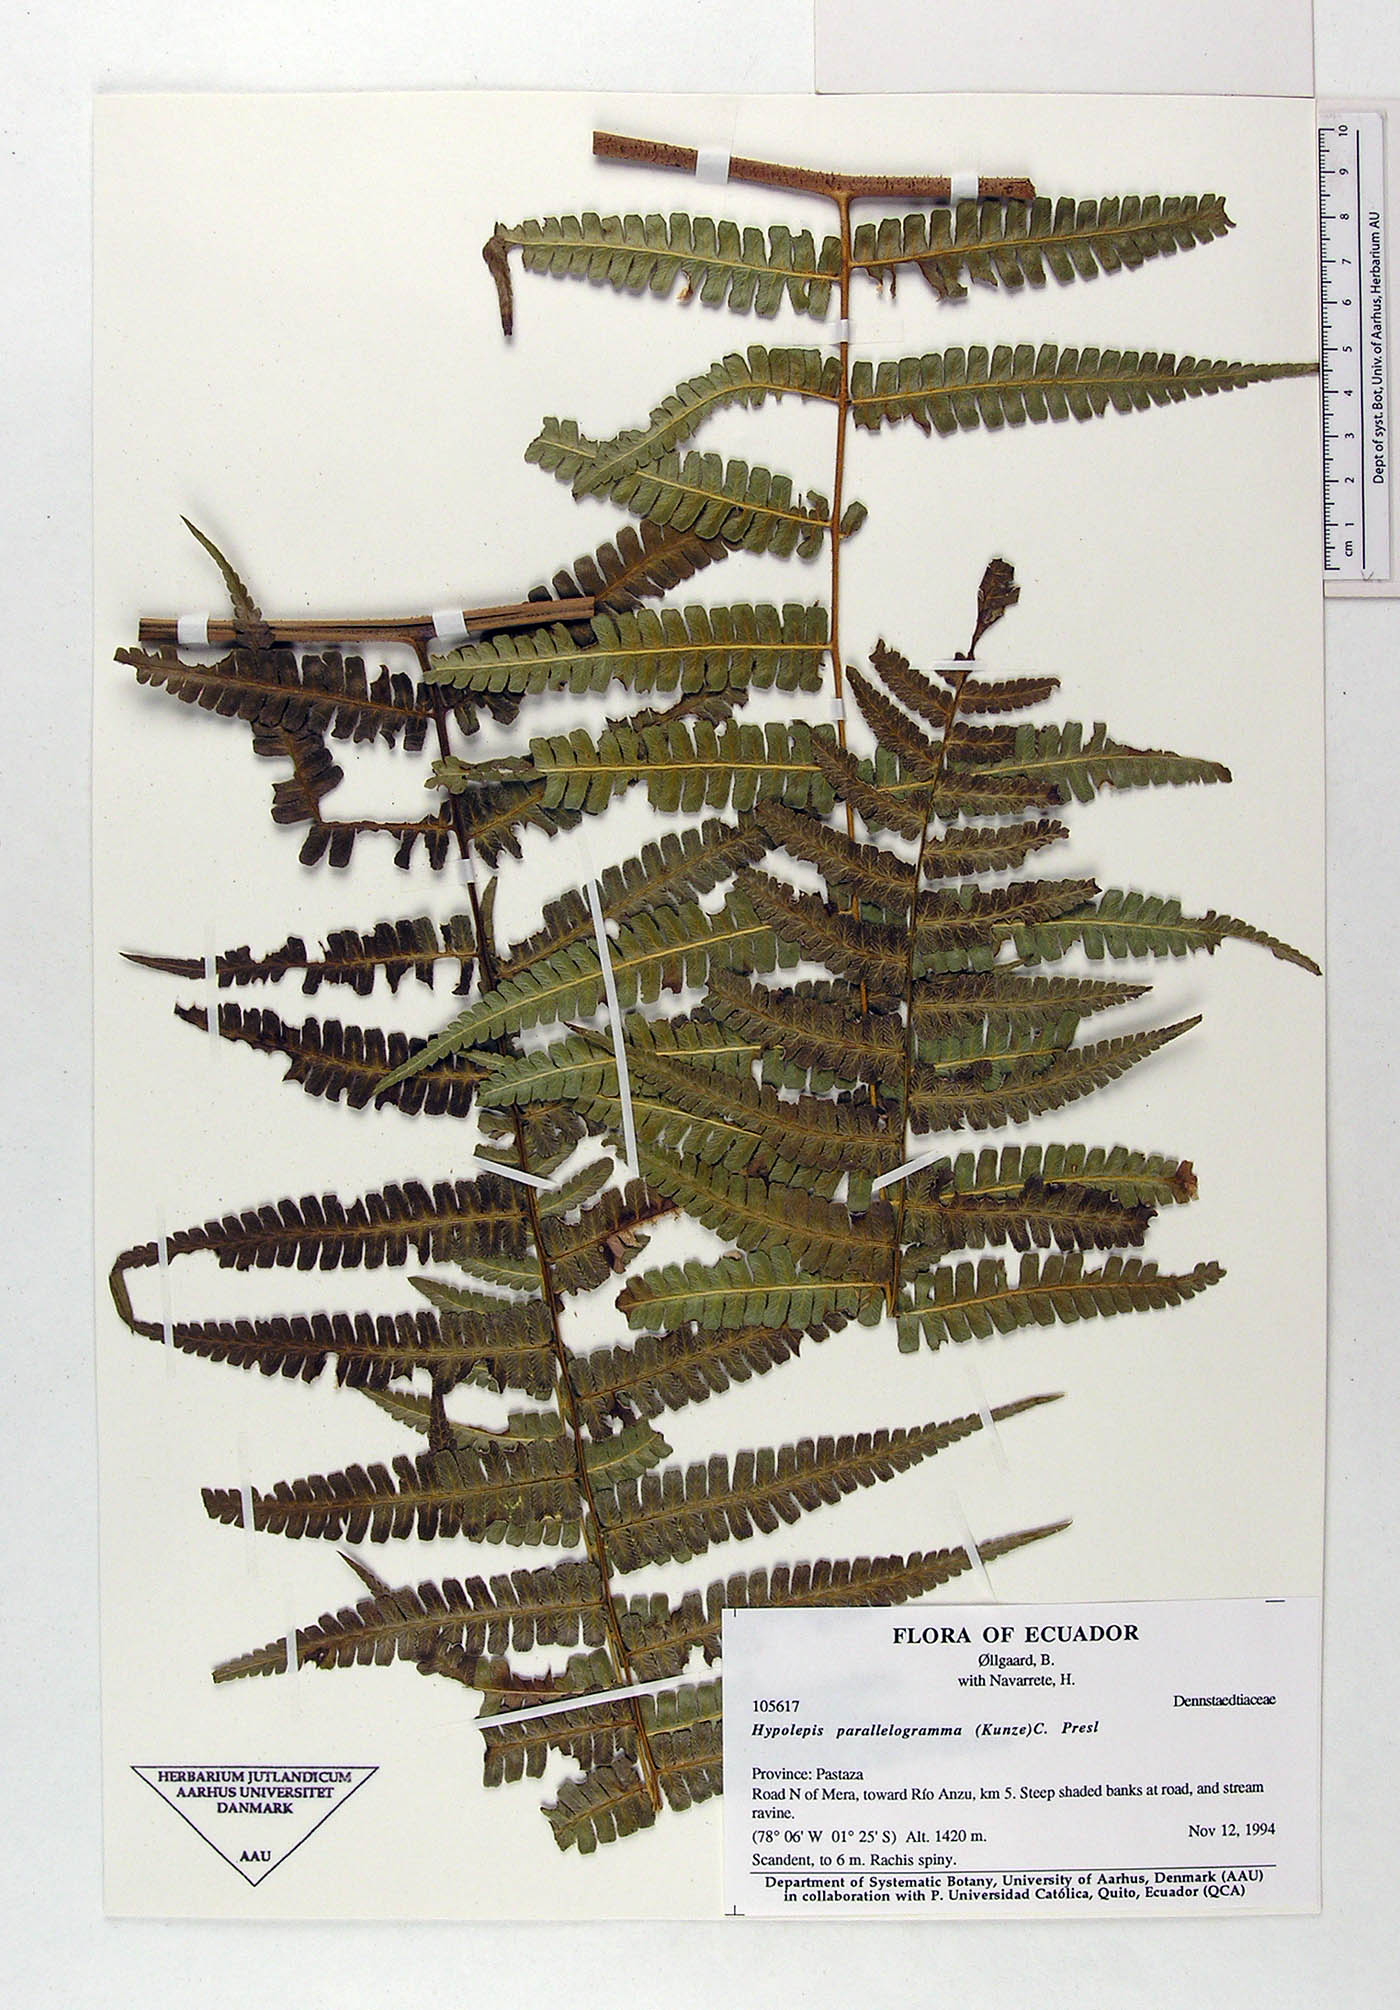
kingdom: Plantae
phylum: Tracheophyta
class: Polypodiopsida
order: Polypodiales
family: Dennstaedtiaceae
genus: Hypolepis
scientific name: Hypolepis parallelogramma
